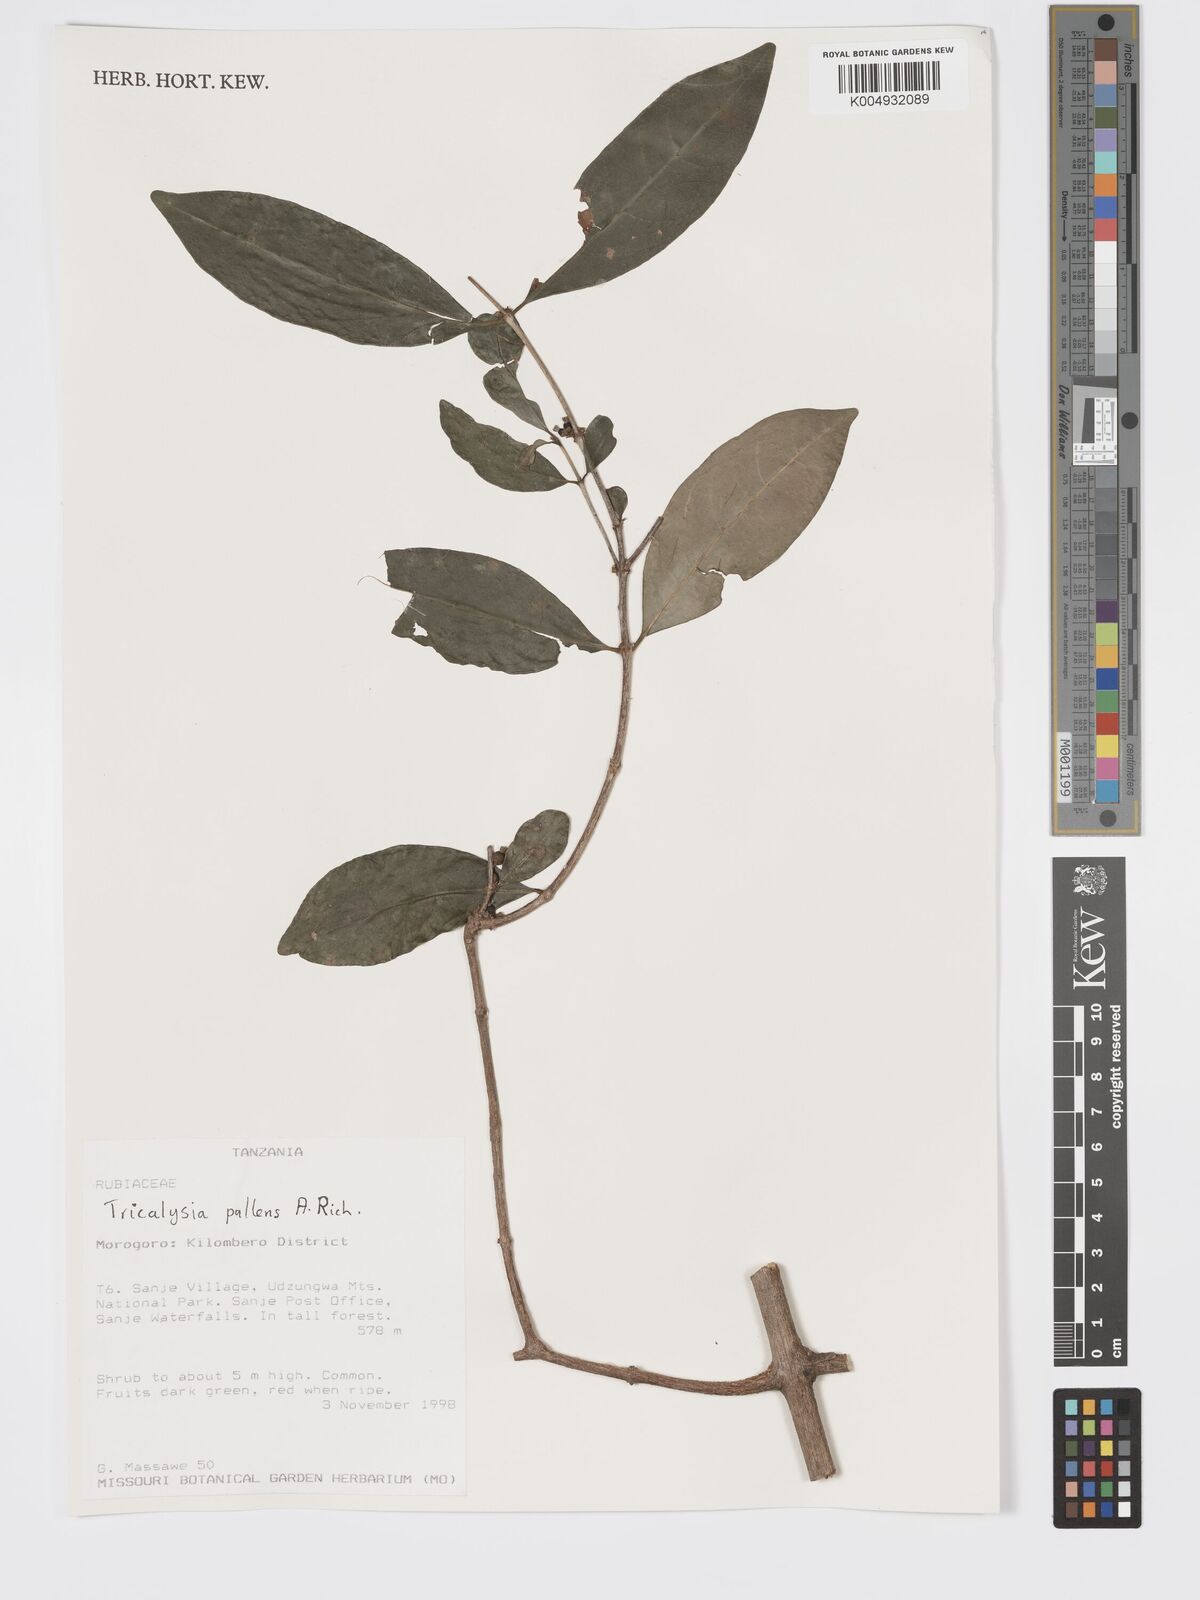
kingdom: Plantae
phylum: Tracheophyta
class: Magnoliopsida
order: Gentianales
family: Rubiaceae
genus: Tricalysia
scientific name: Tricalysia pallens
